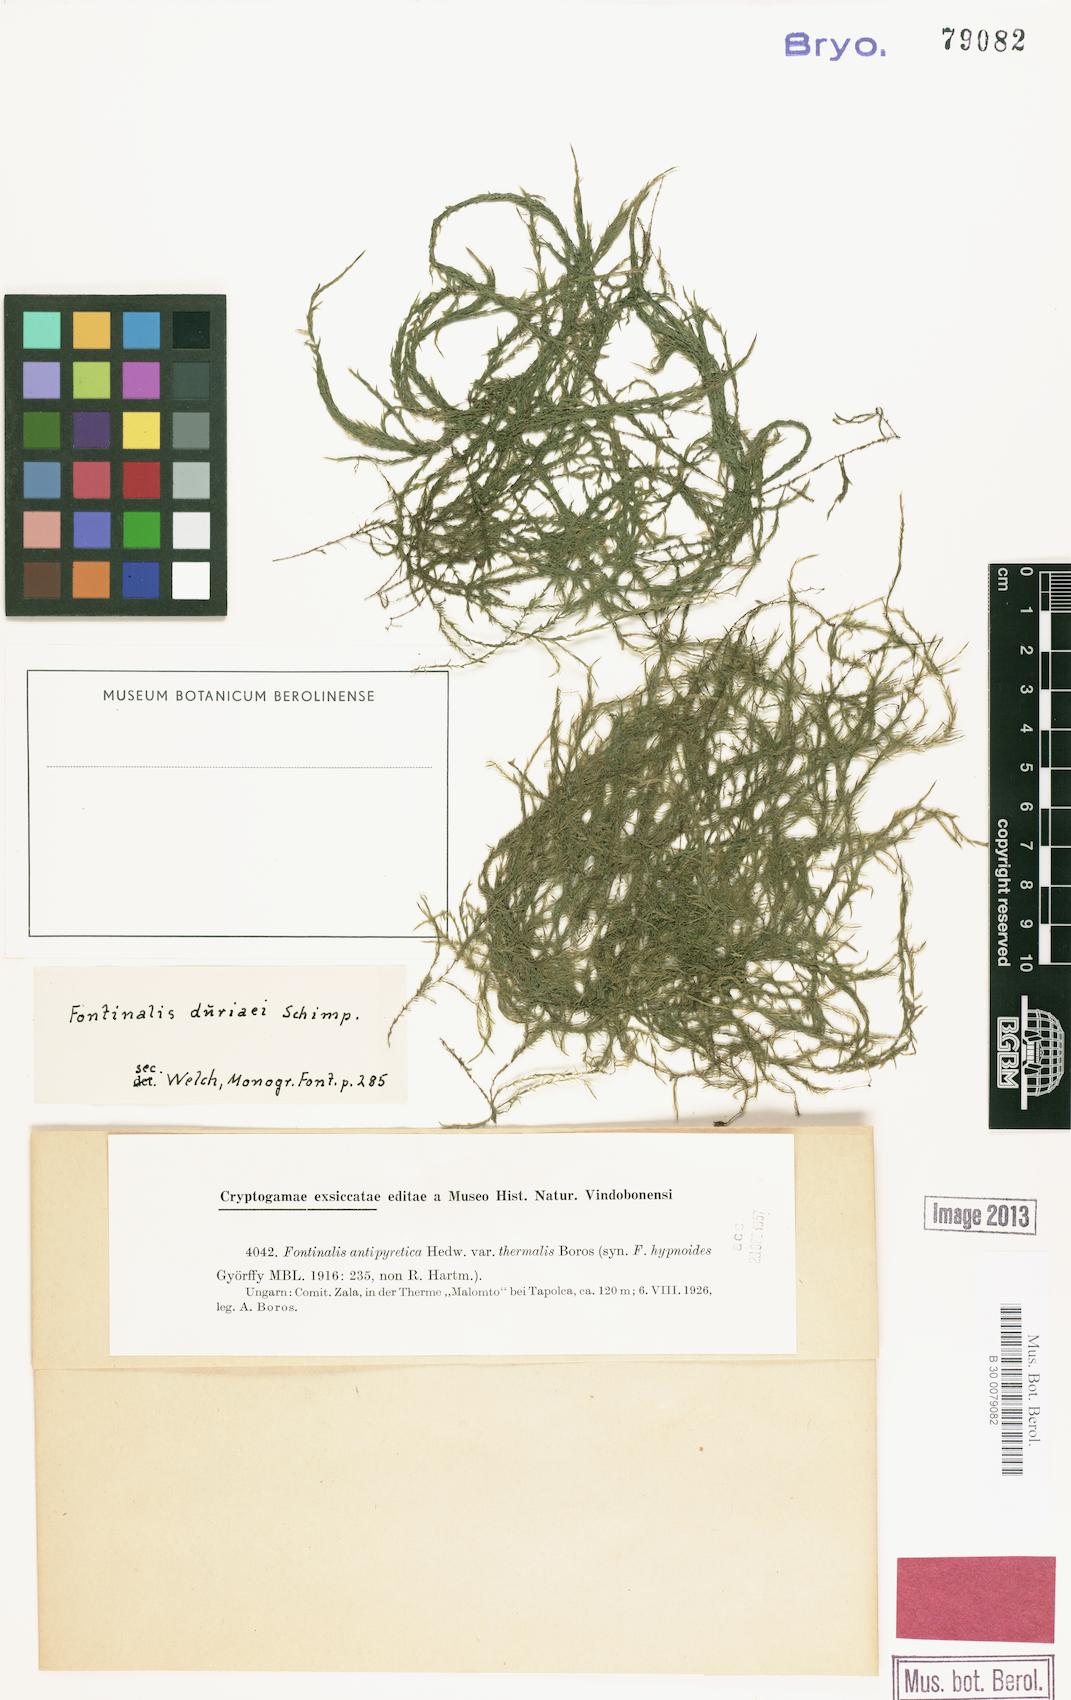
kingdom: Plantae
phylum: Bryophyta
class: Bryopsida
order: Hypnales
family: Fontinalaceae
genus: Fontinalis
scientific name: Fontinalis hypnoides
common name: River moss
